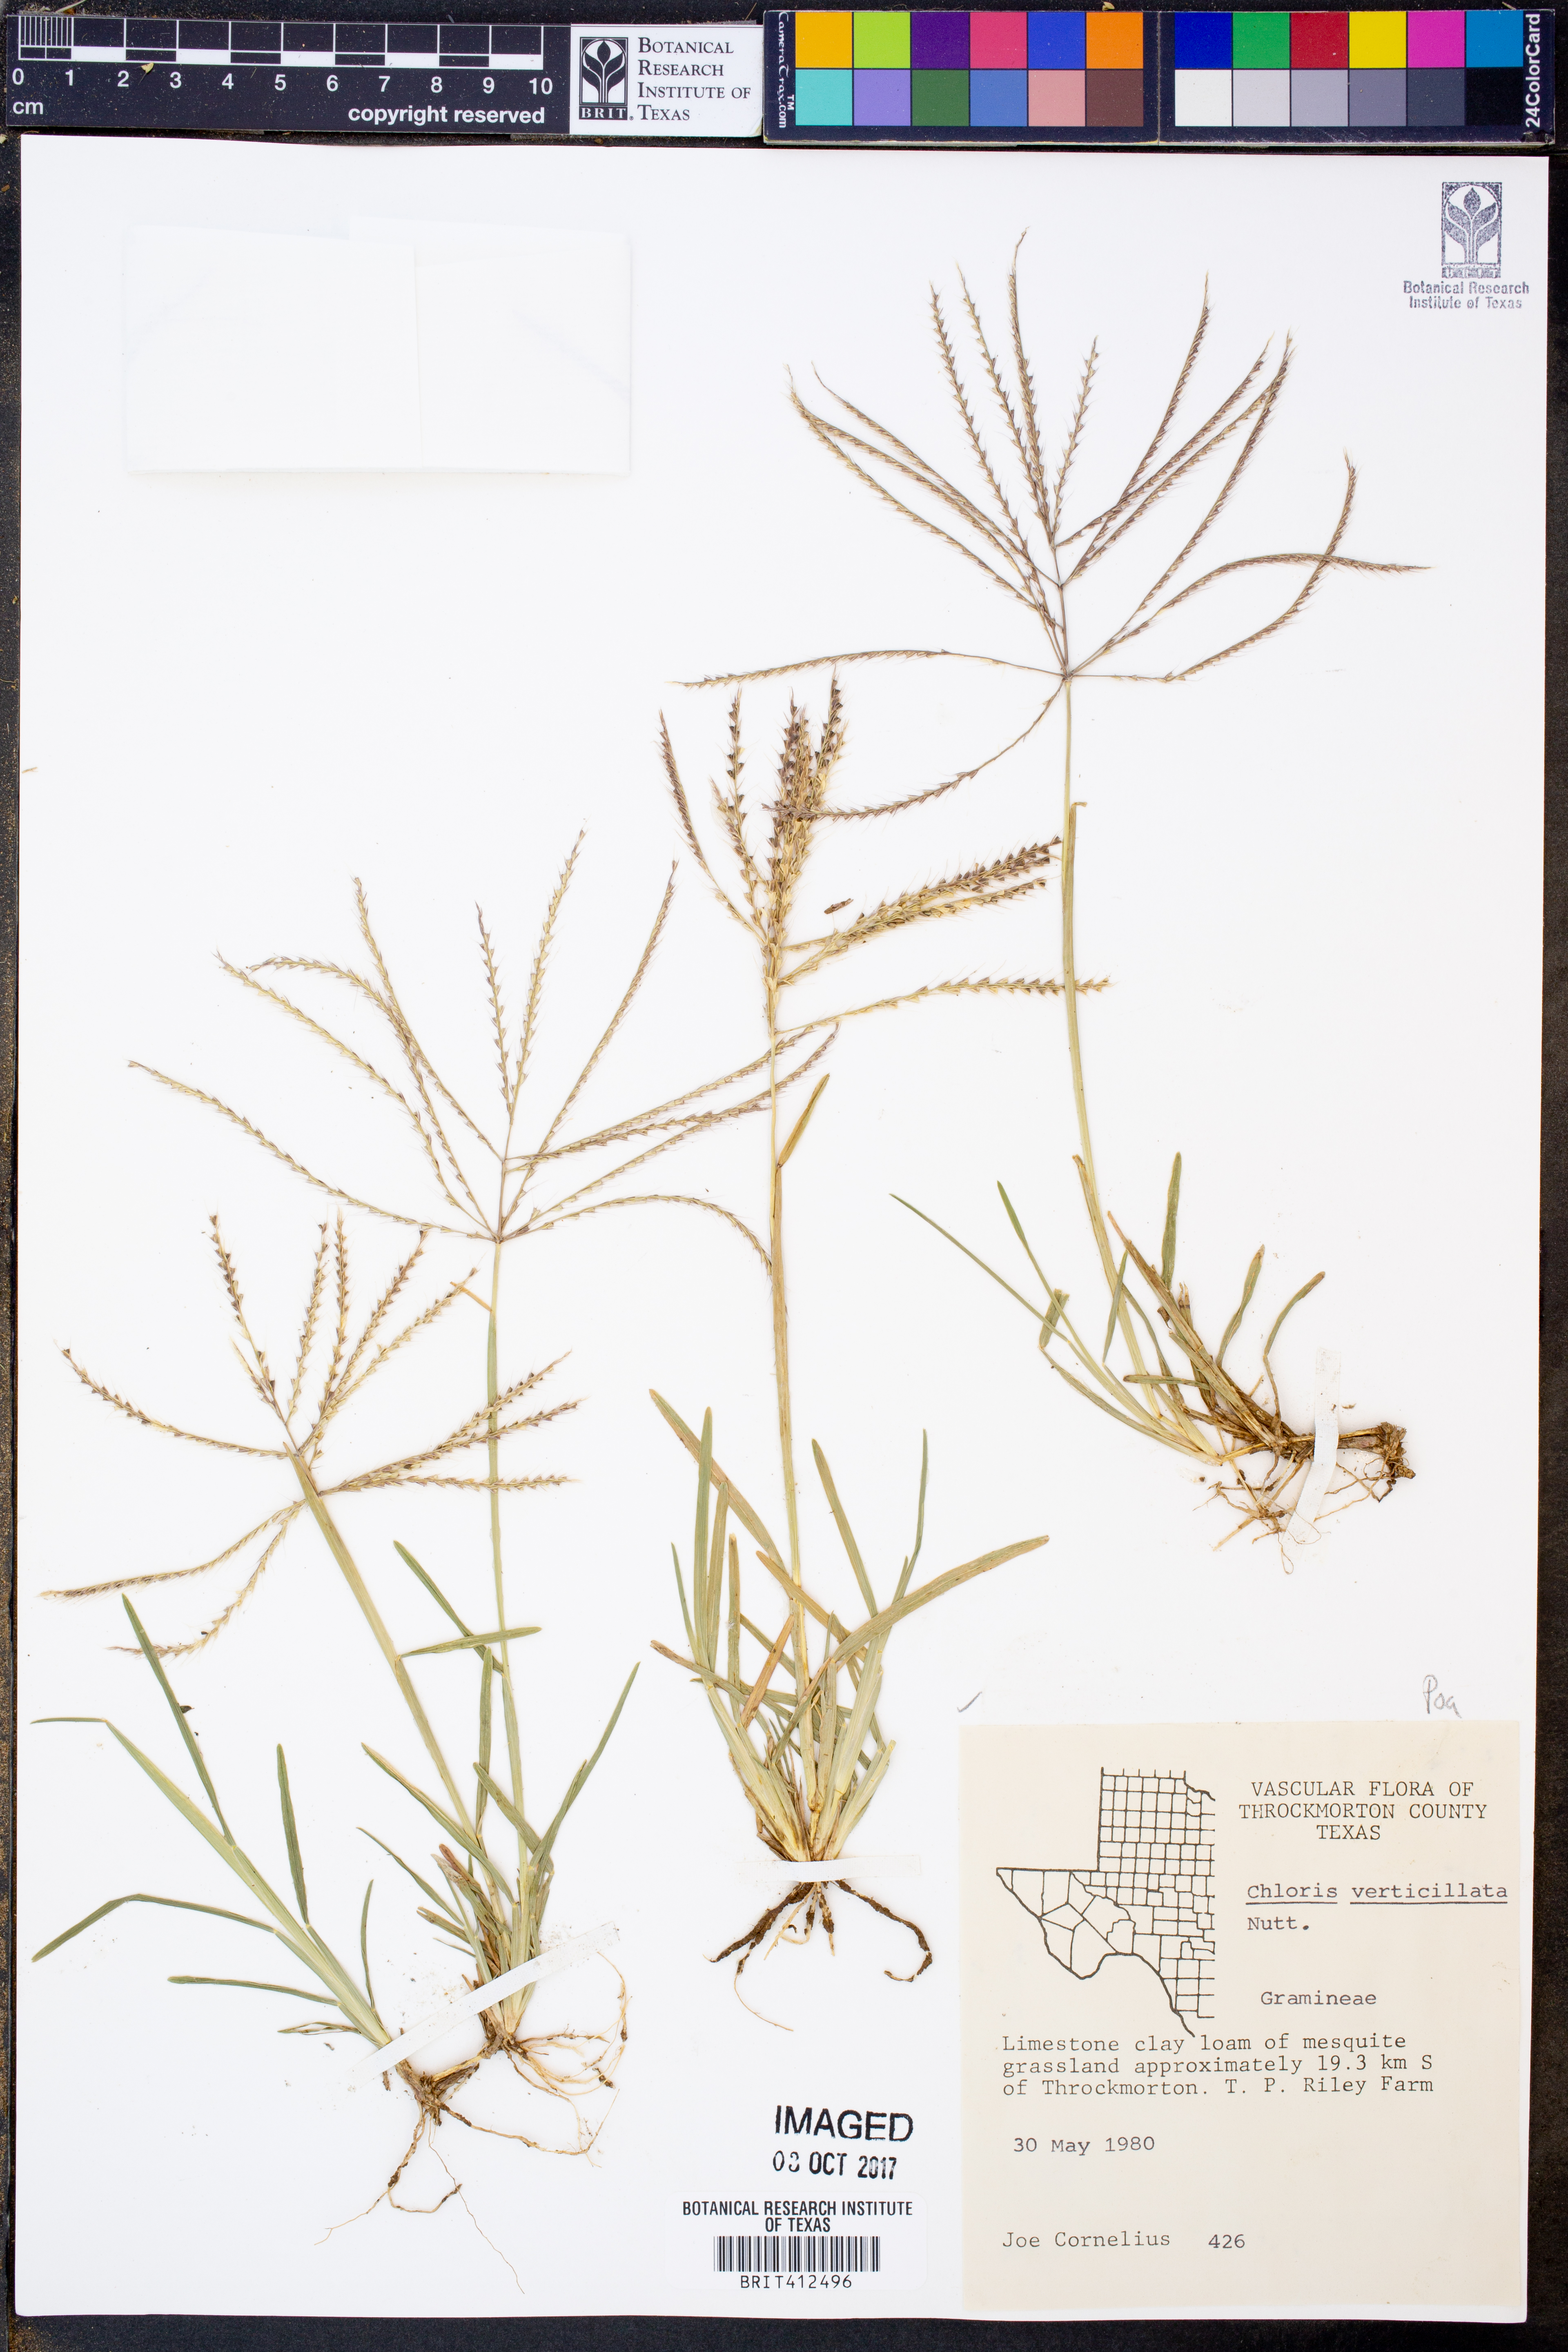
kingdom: Plantae
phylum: Tracheophyta
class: Liliopsida
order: Poales
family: Poaceae
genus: Chloris
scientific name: Chloris verticillata
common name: Tumble windmill grass
